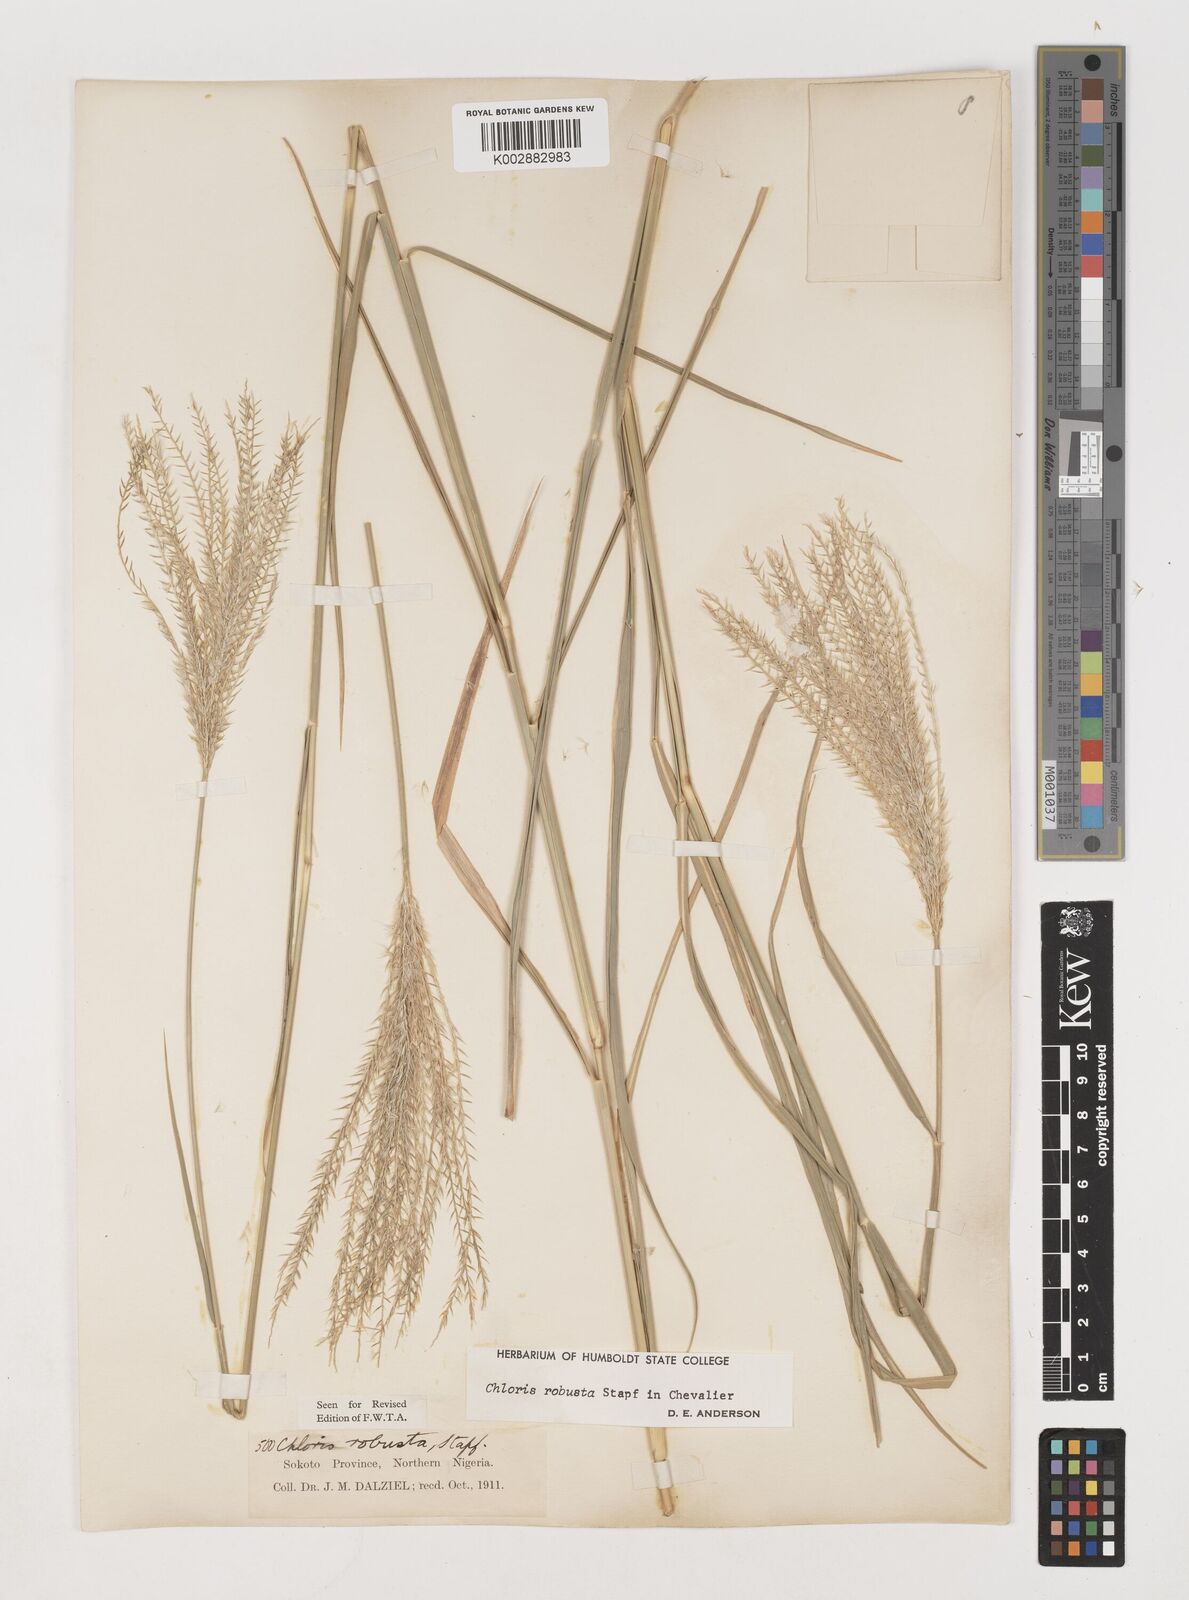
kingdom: Plantae
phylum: Tracheophyta
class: Liliopsida
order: Poales
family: Poaceae
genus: Chloris
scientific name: Chloris robusta
